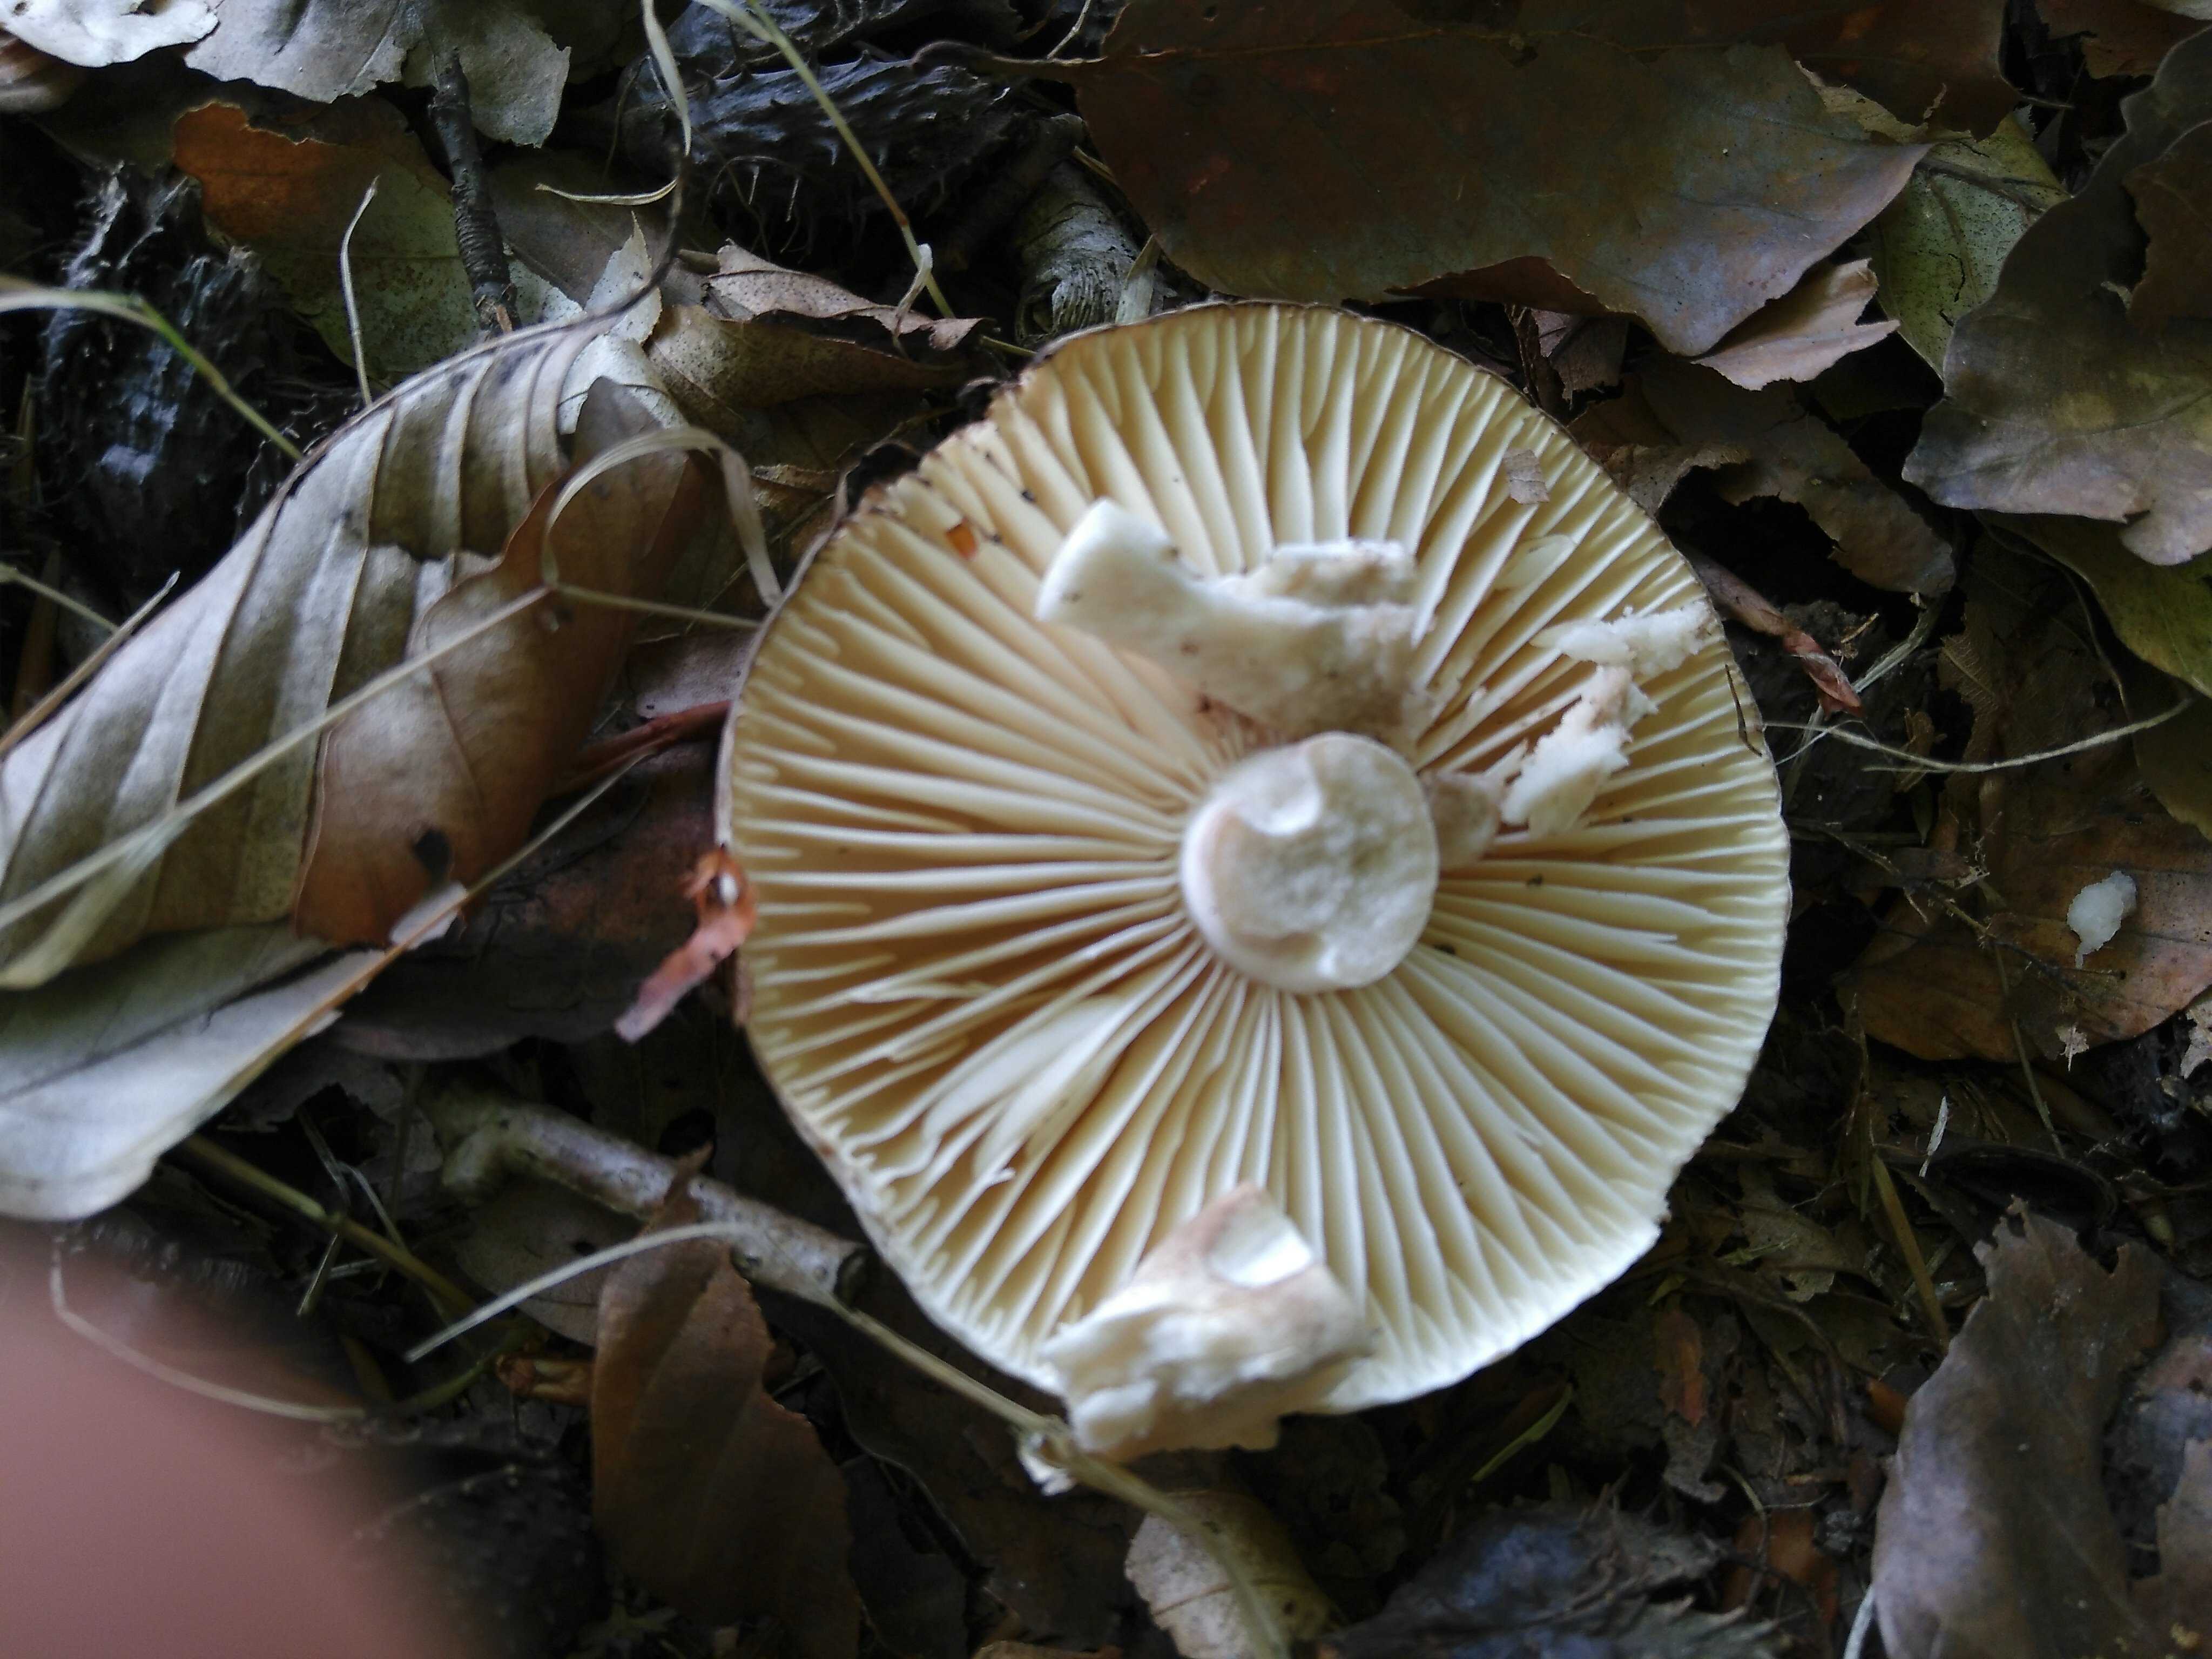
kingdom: Fungi
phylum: Basidiomycota
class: Agaricomycetes
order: Russulales
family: Russulaceae
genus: Russula
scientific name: Russula adusta
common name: sværtende skørhat
